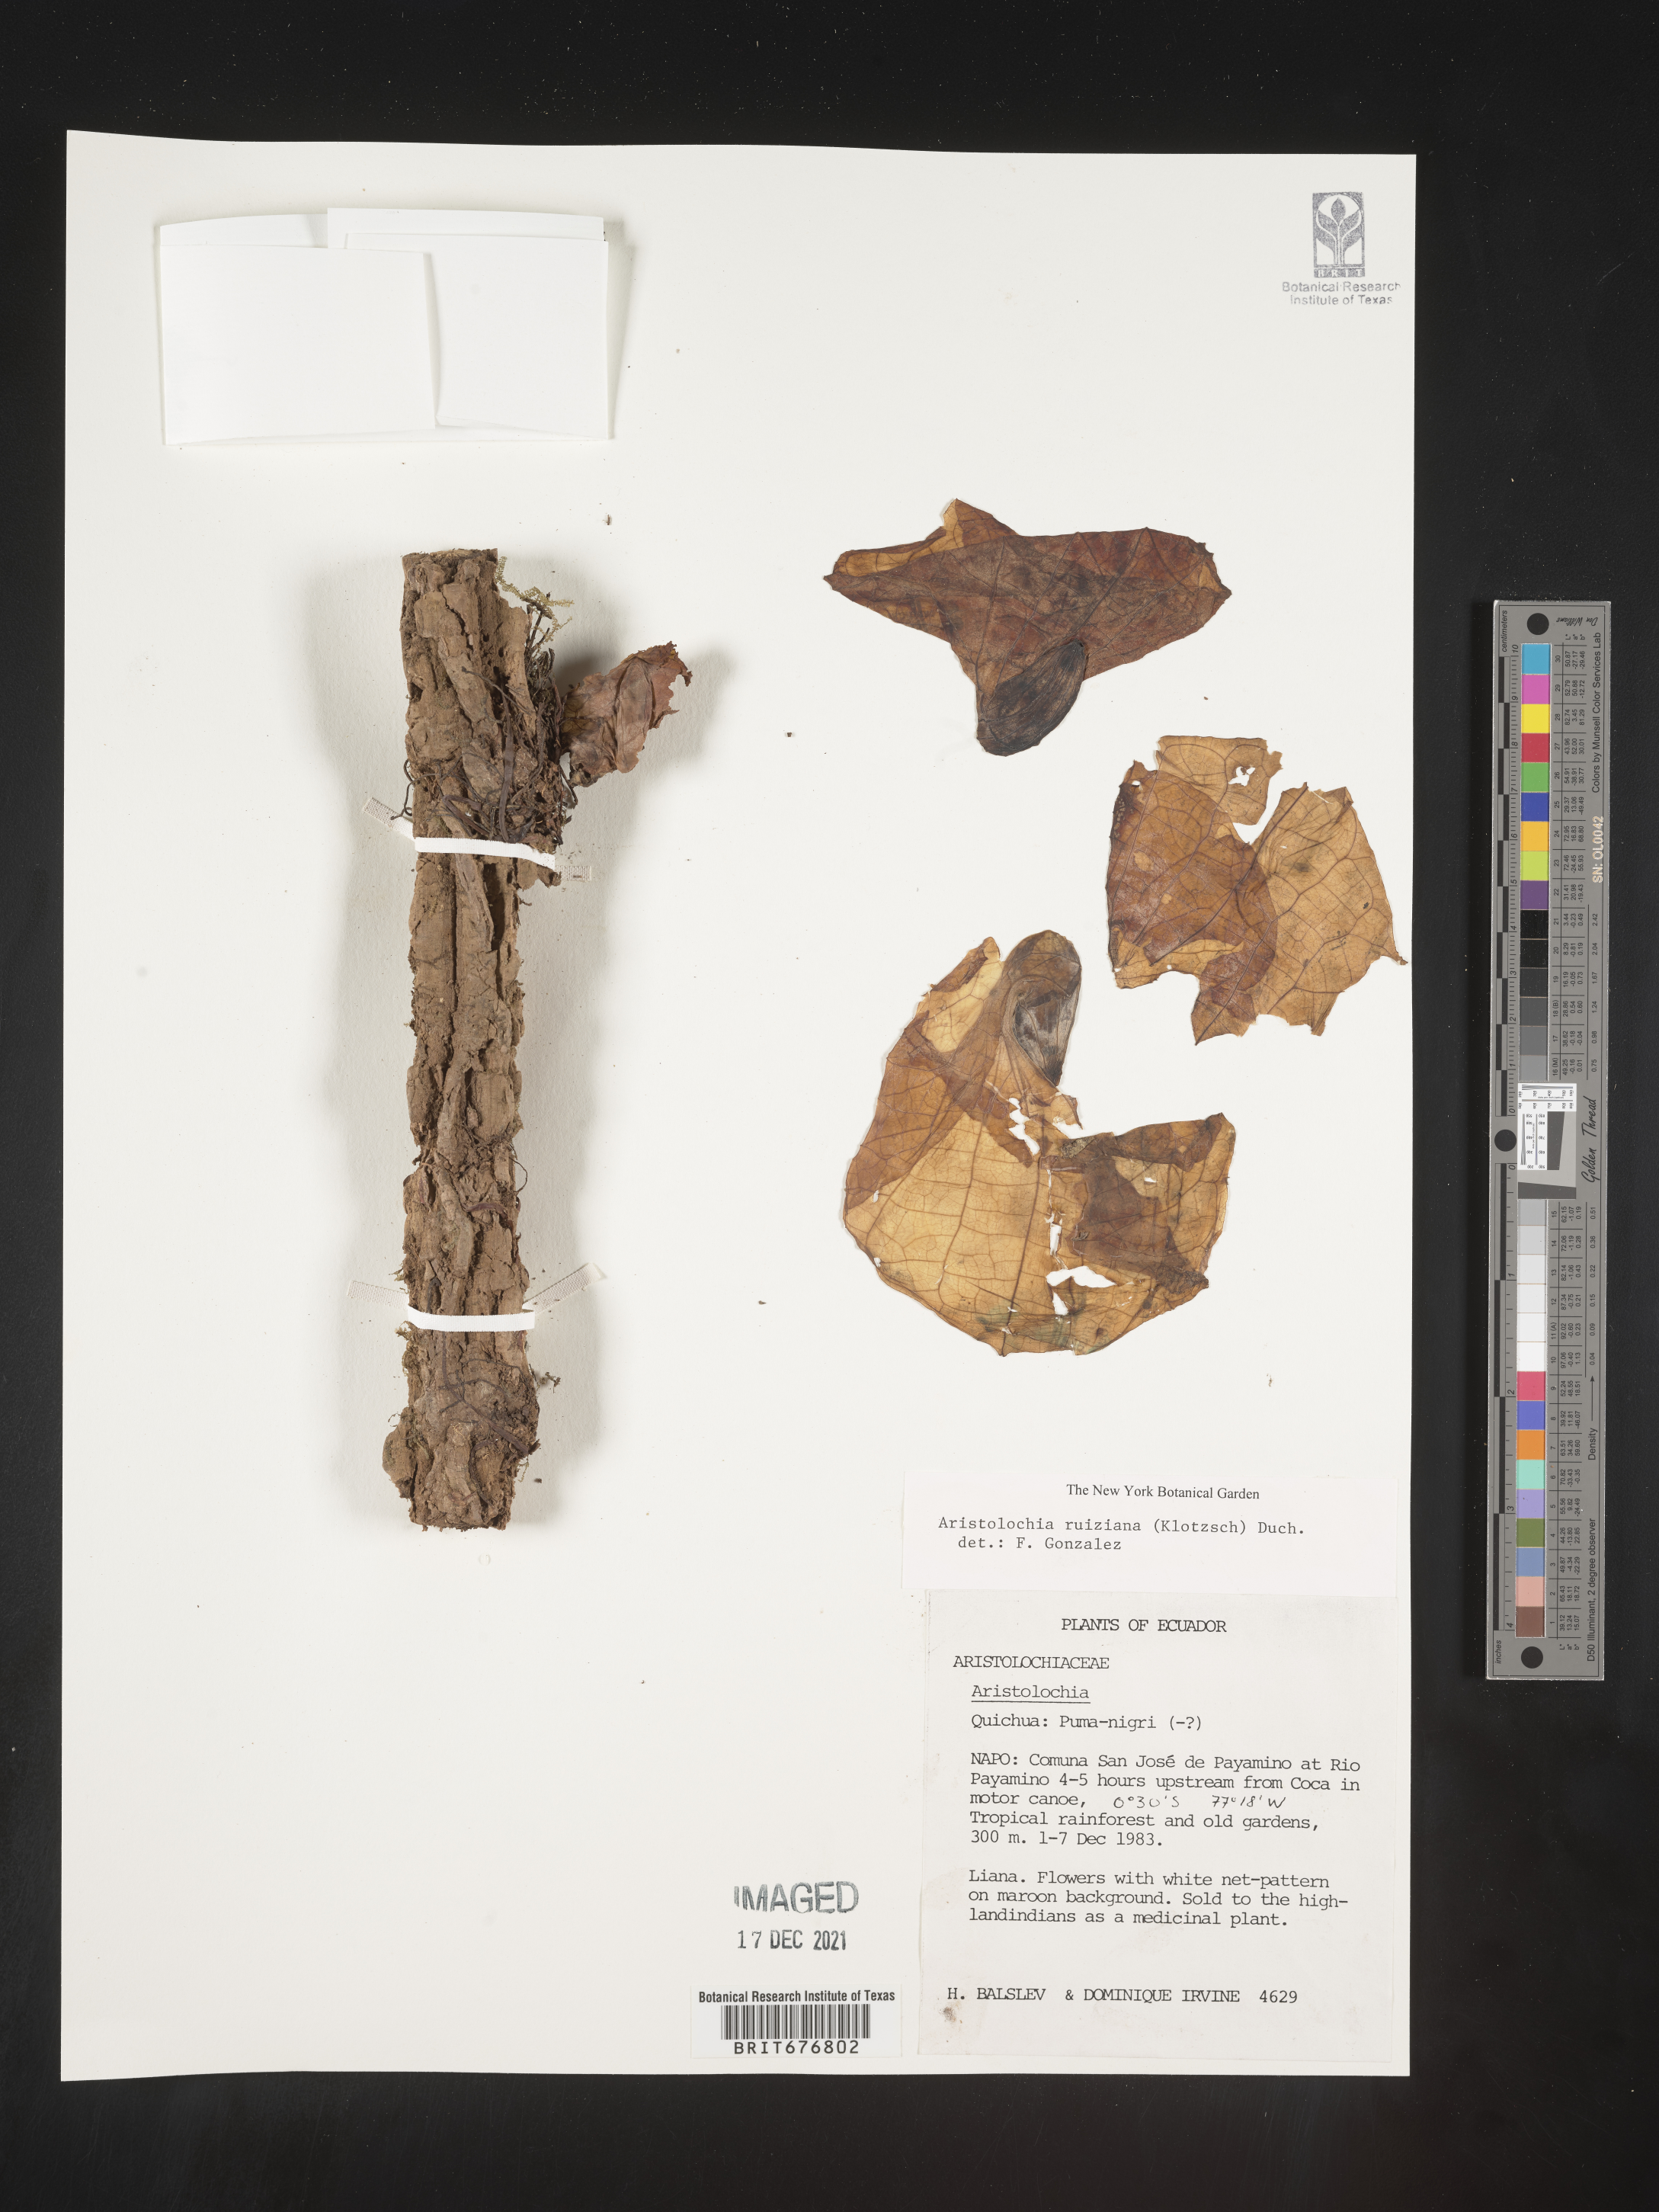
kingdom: Plantae
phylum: Tracheophyta
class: Magnoliopsida
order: Piperales
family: Aristolochiaceae
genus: Aristolochia
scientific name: Aristolochia
